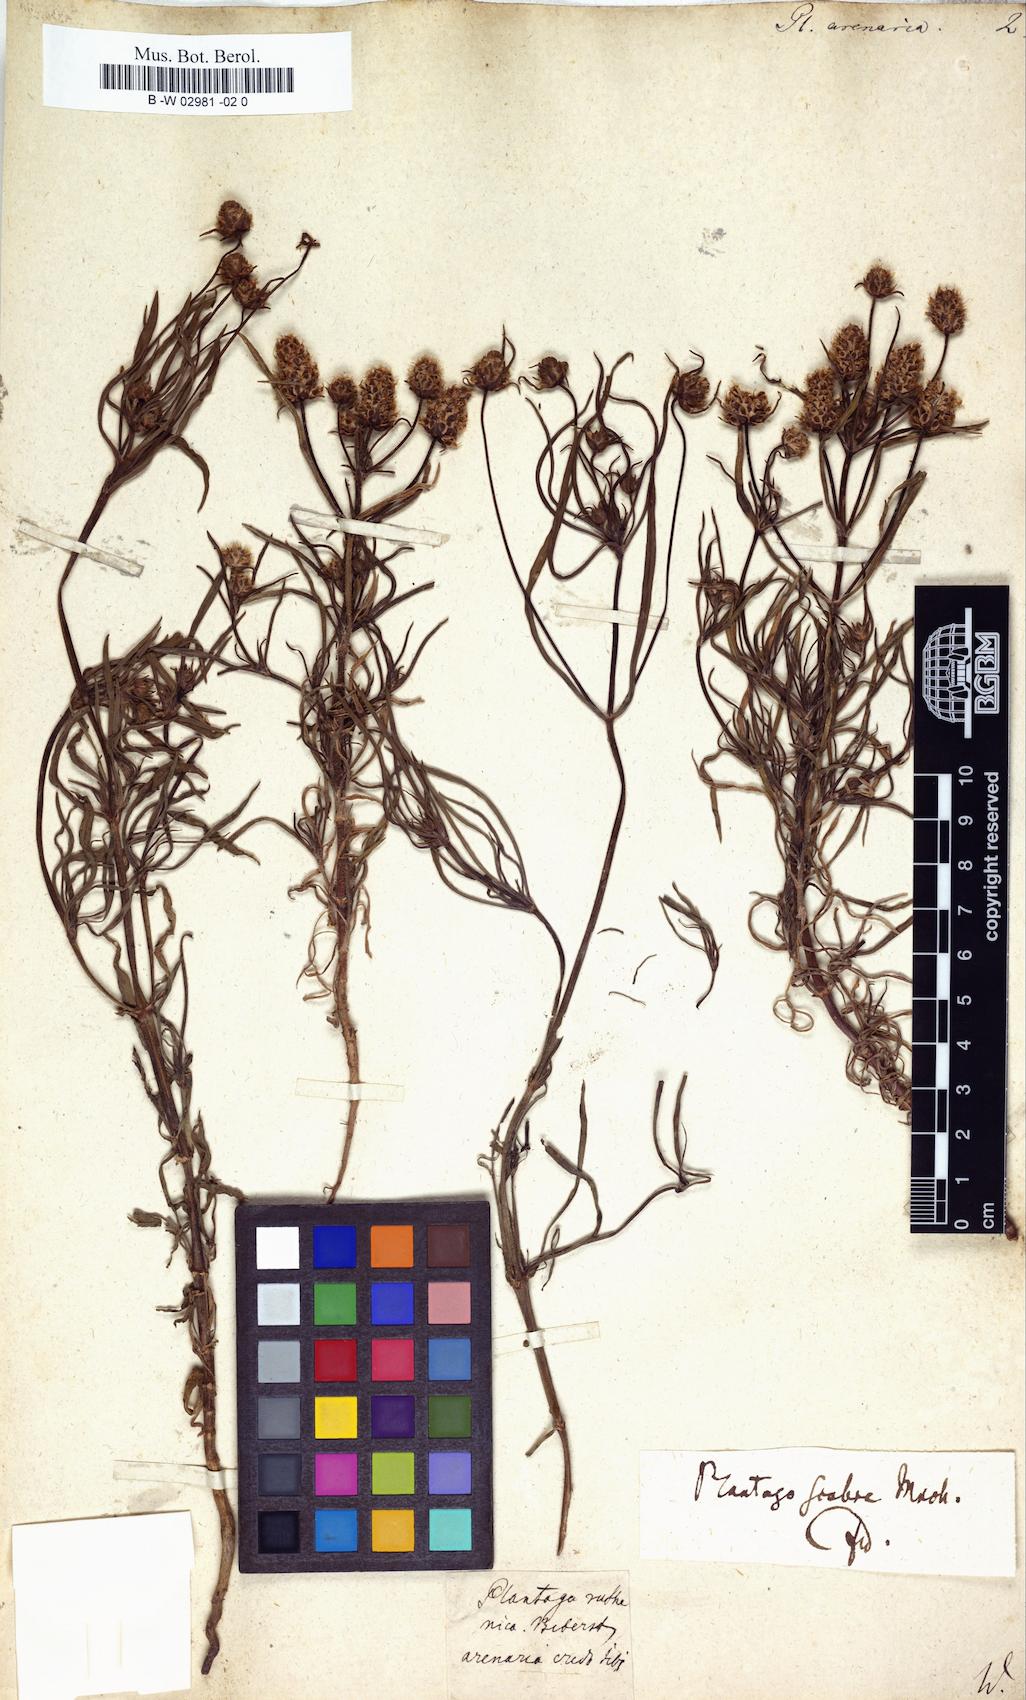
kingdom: Plantae
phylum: Tracheophyta
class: Magnoliopsida
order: Lamiales
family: Plantaginaceae
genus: Plantago
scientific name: Plantago arenaria
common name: Branched plantain
